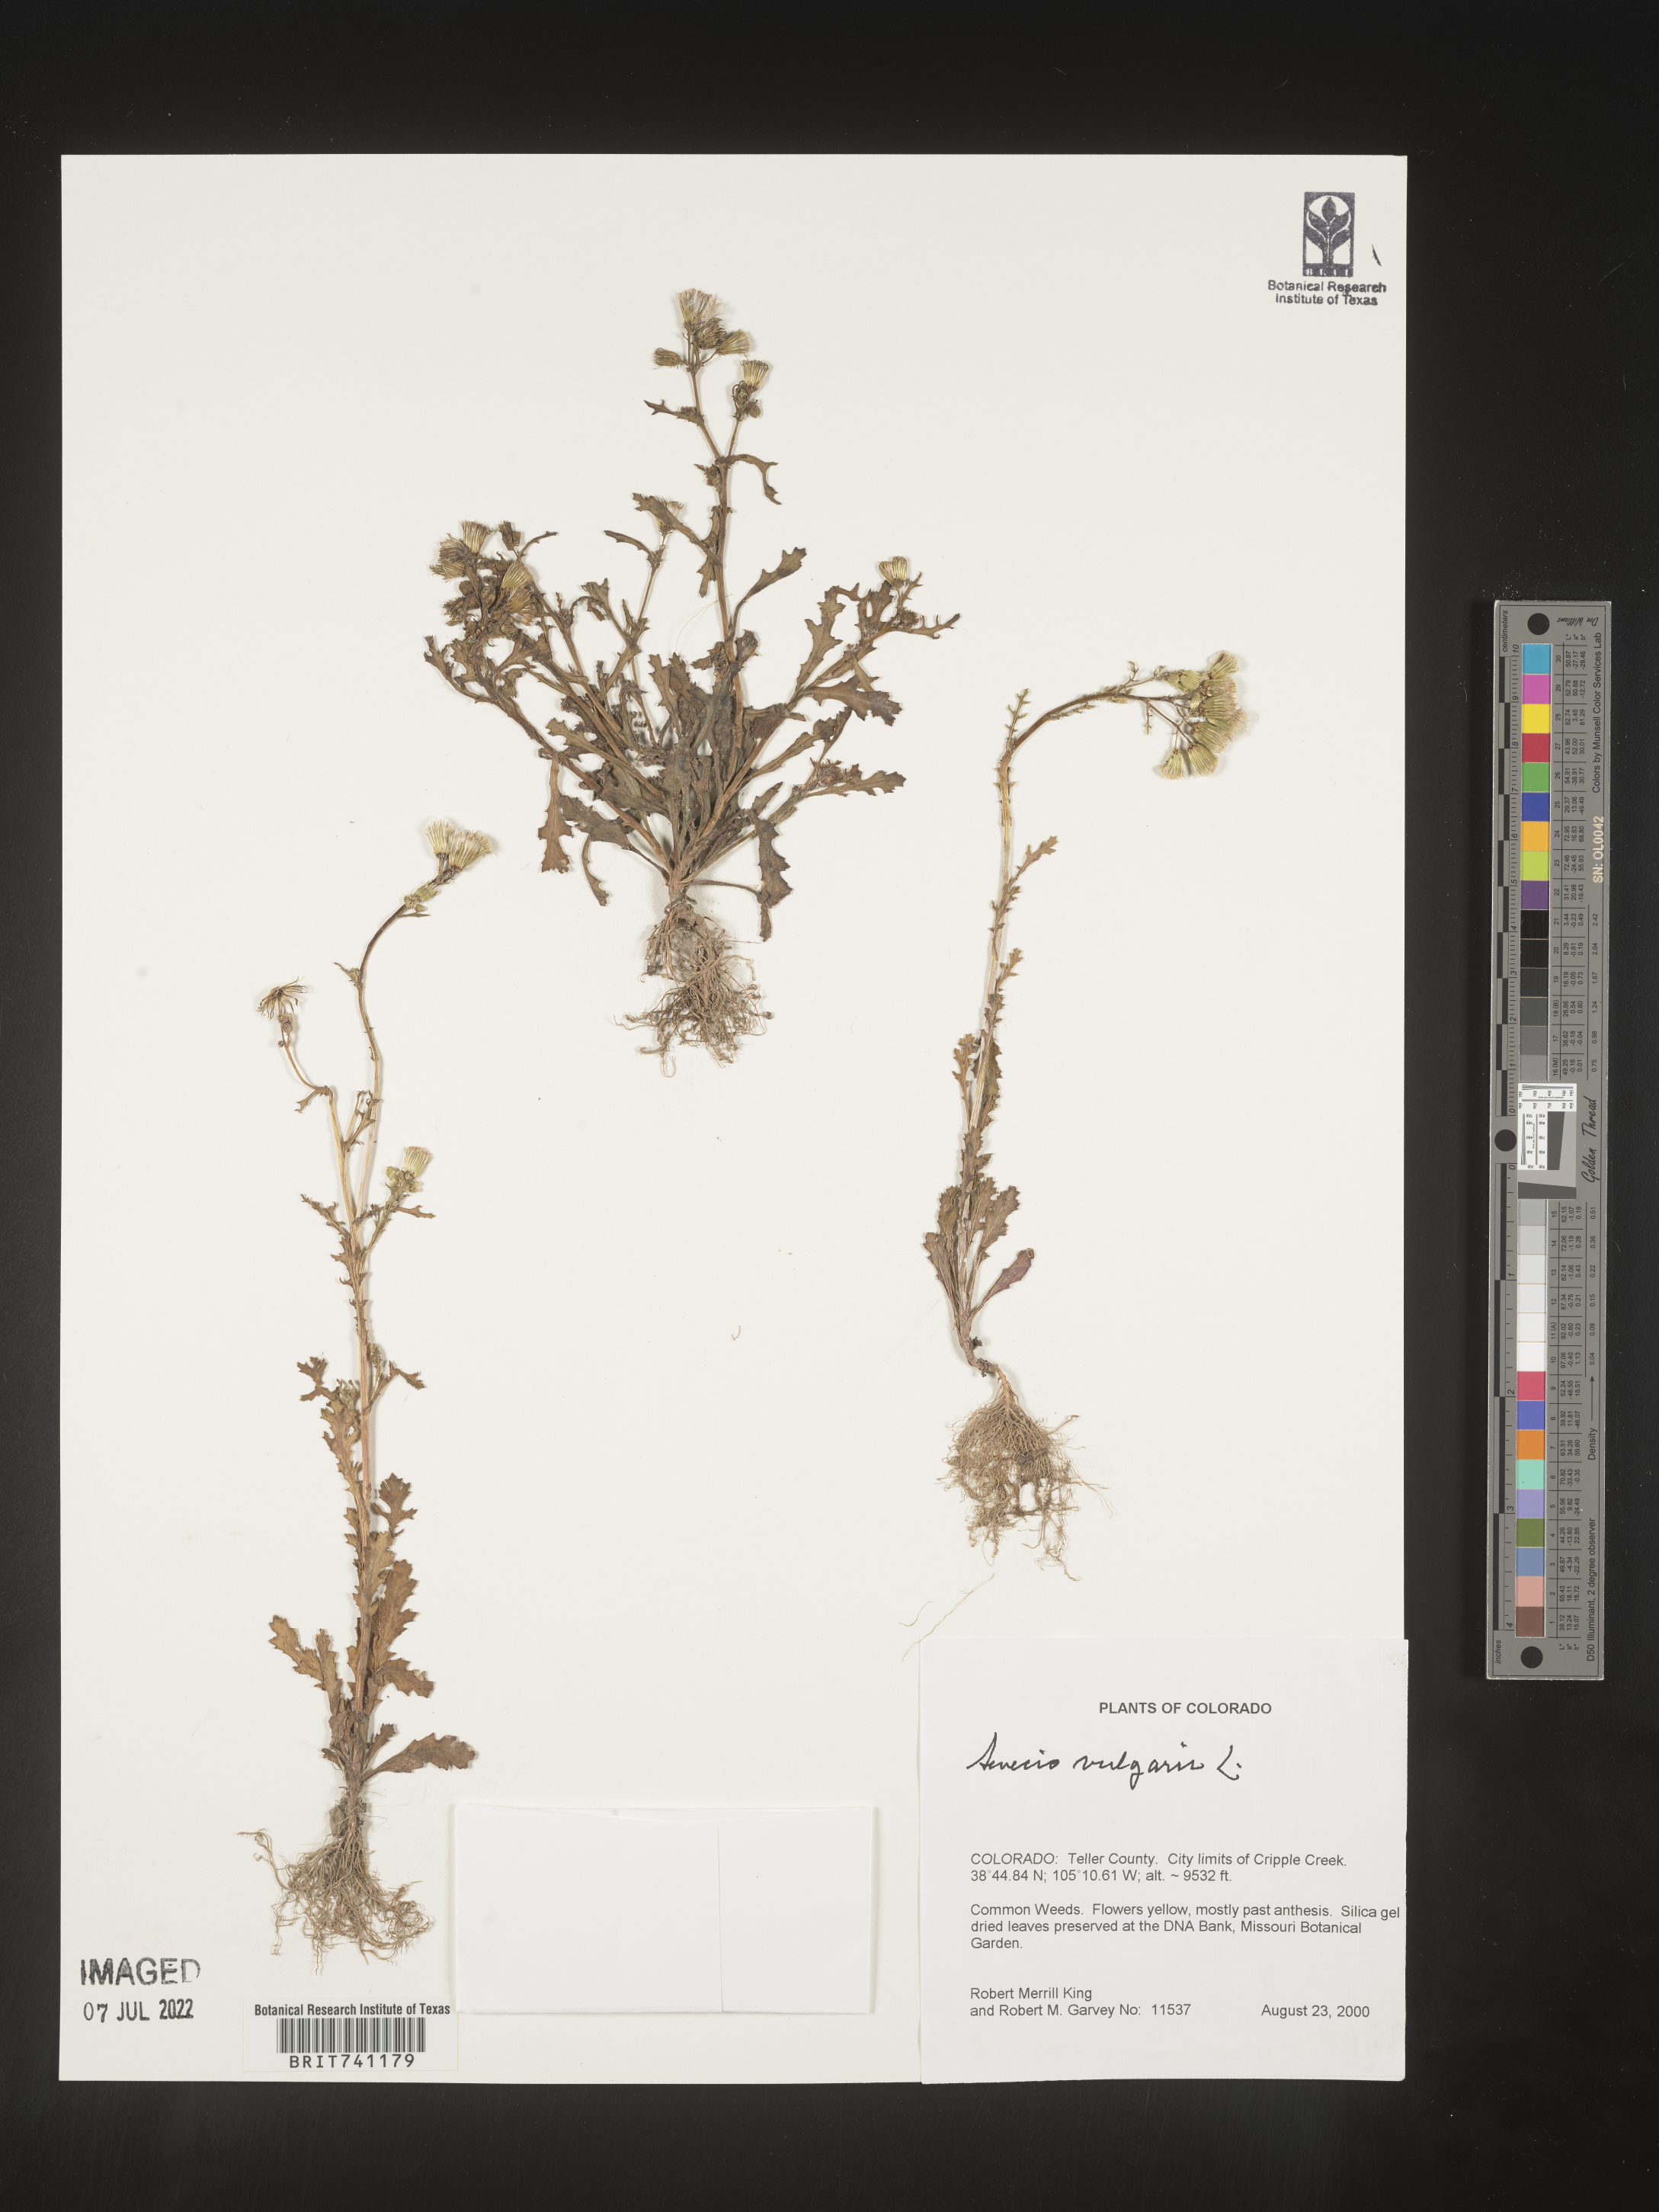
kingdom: Plantae
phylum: Tracheophyta
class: Magnoliopsida
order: Asterales
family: Asteraceae
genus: Senecio
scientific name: Senecio vulgaris
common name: Old-man-in-the-spring
